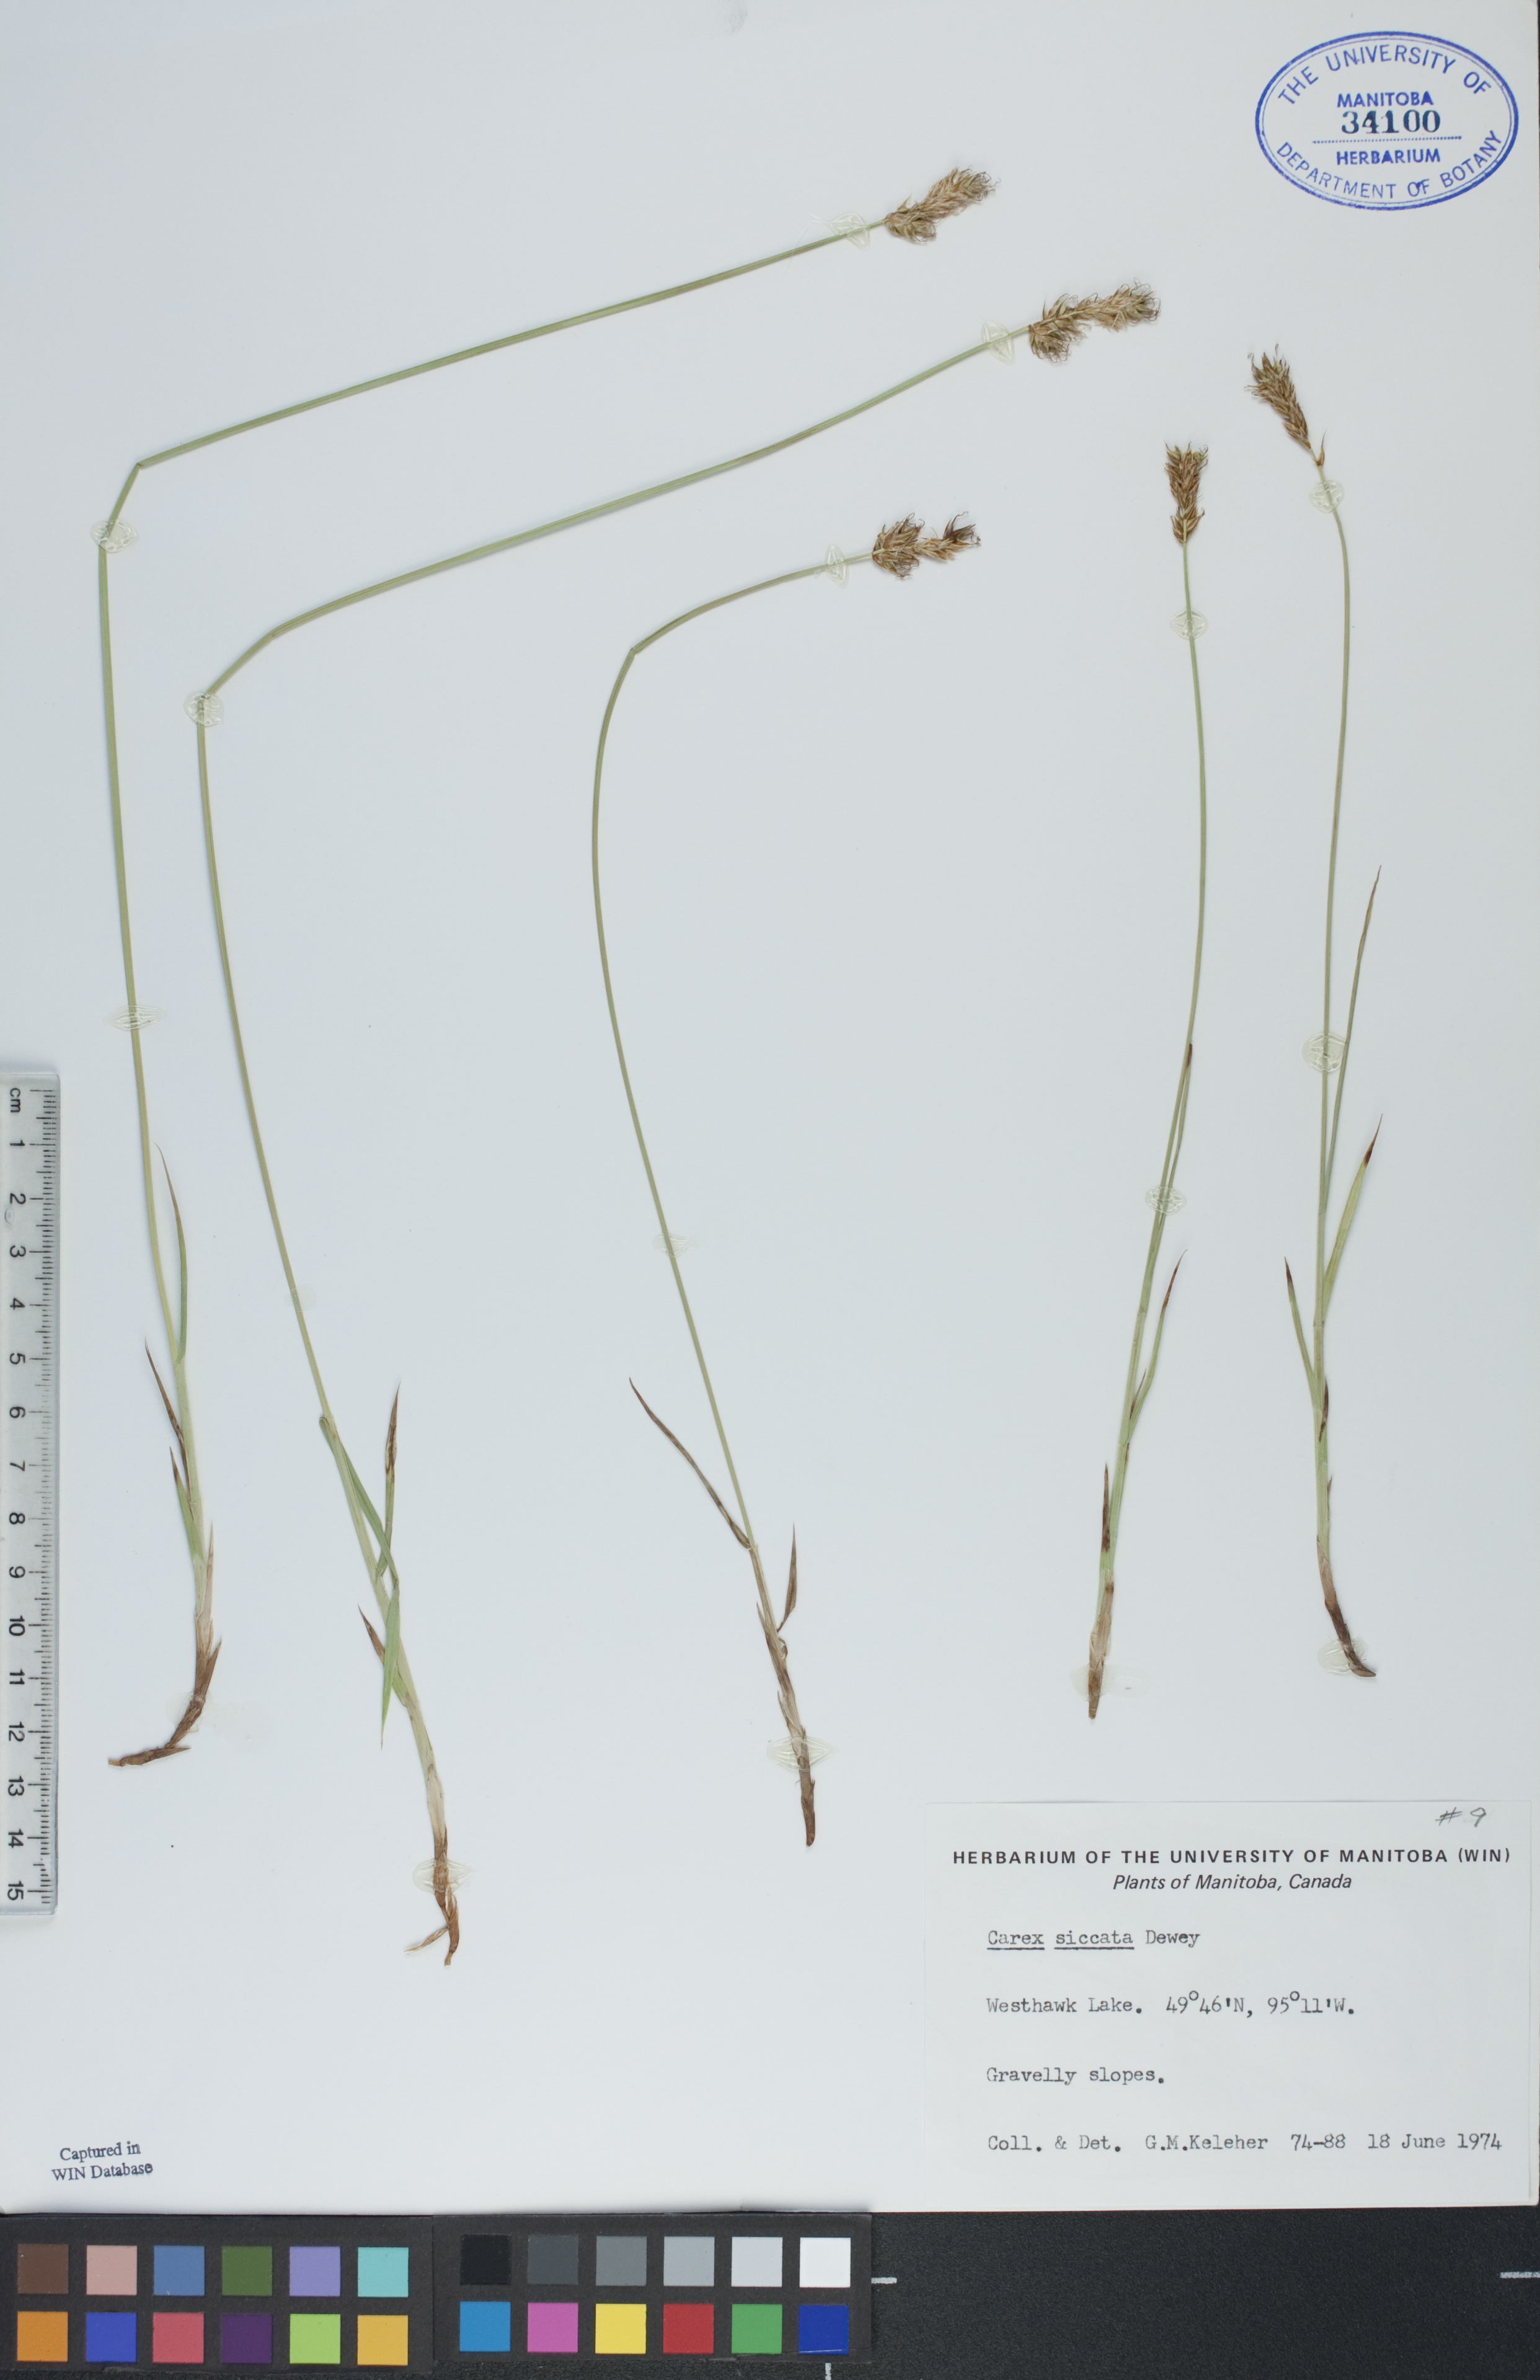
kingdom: Plantae
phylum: Tracheophyta
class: Liliopsida
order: Poales
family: Cyperaceae
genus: Carex
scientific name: Carex siccata
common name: Dry sedge
